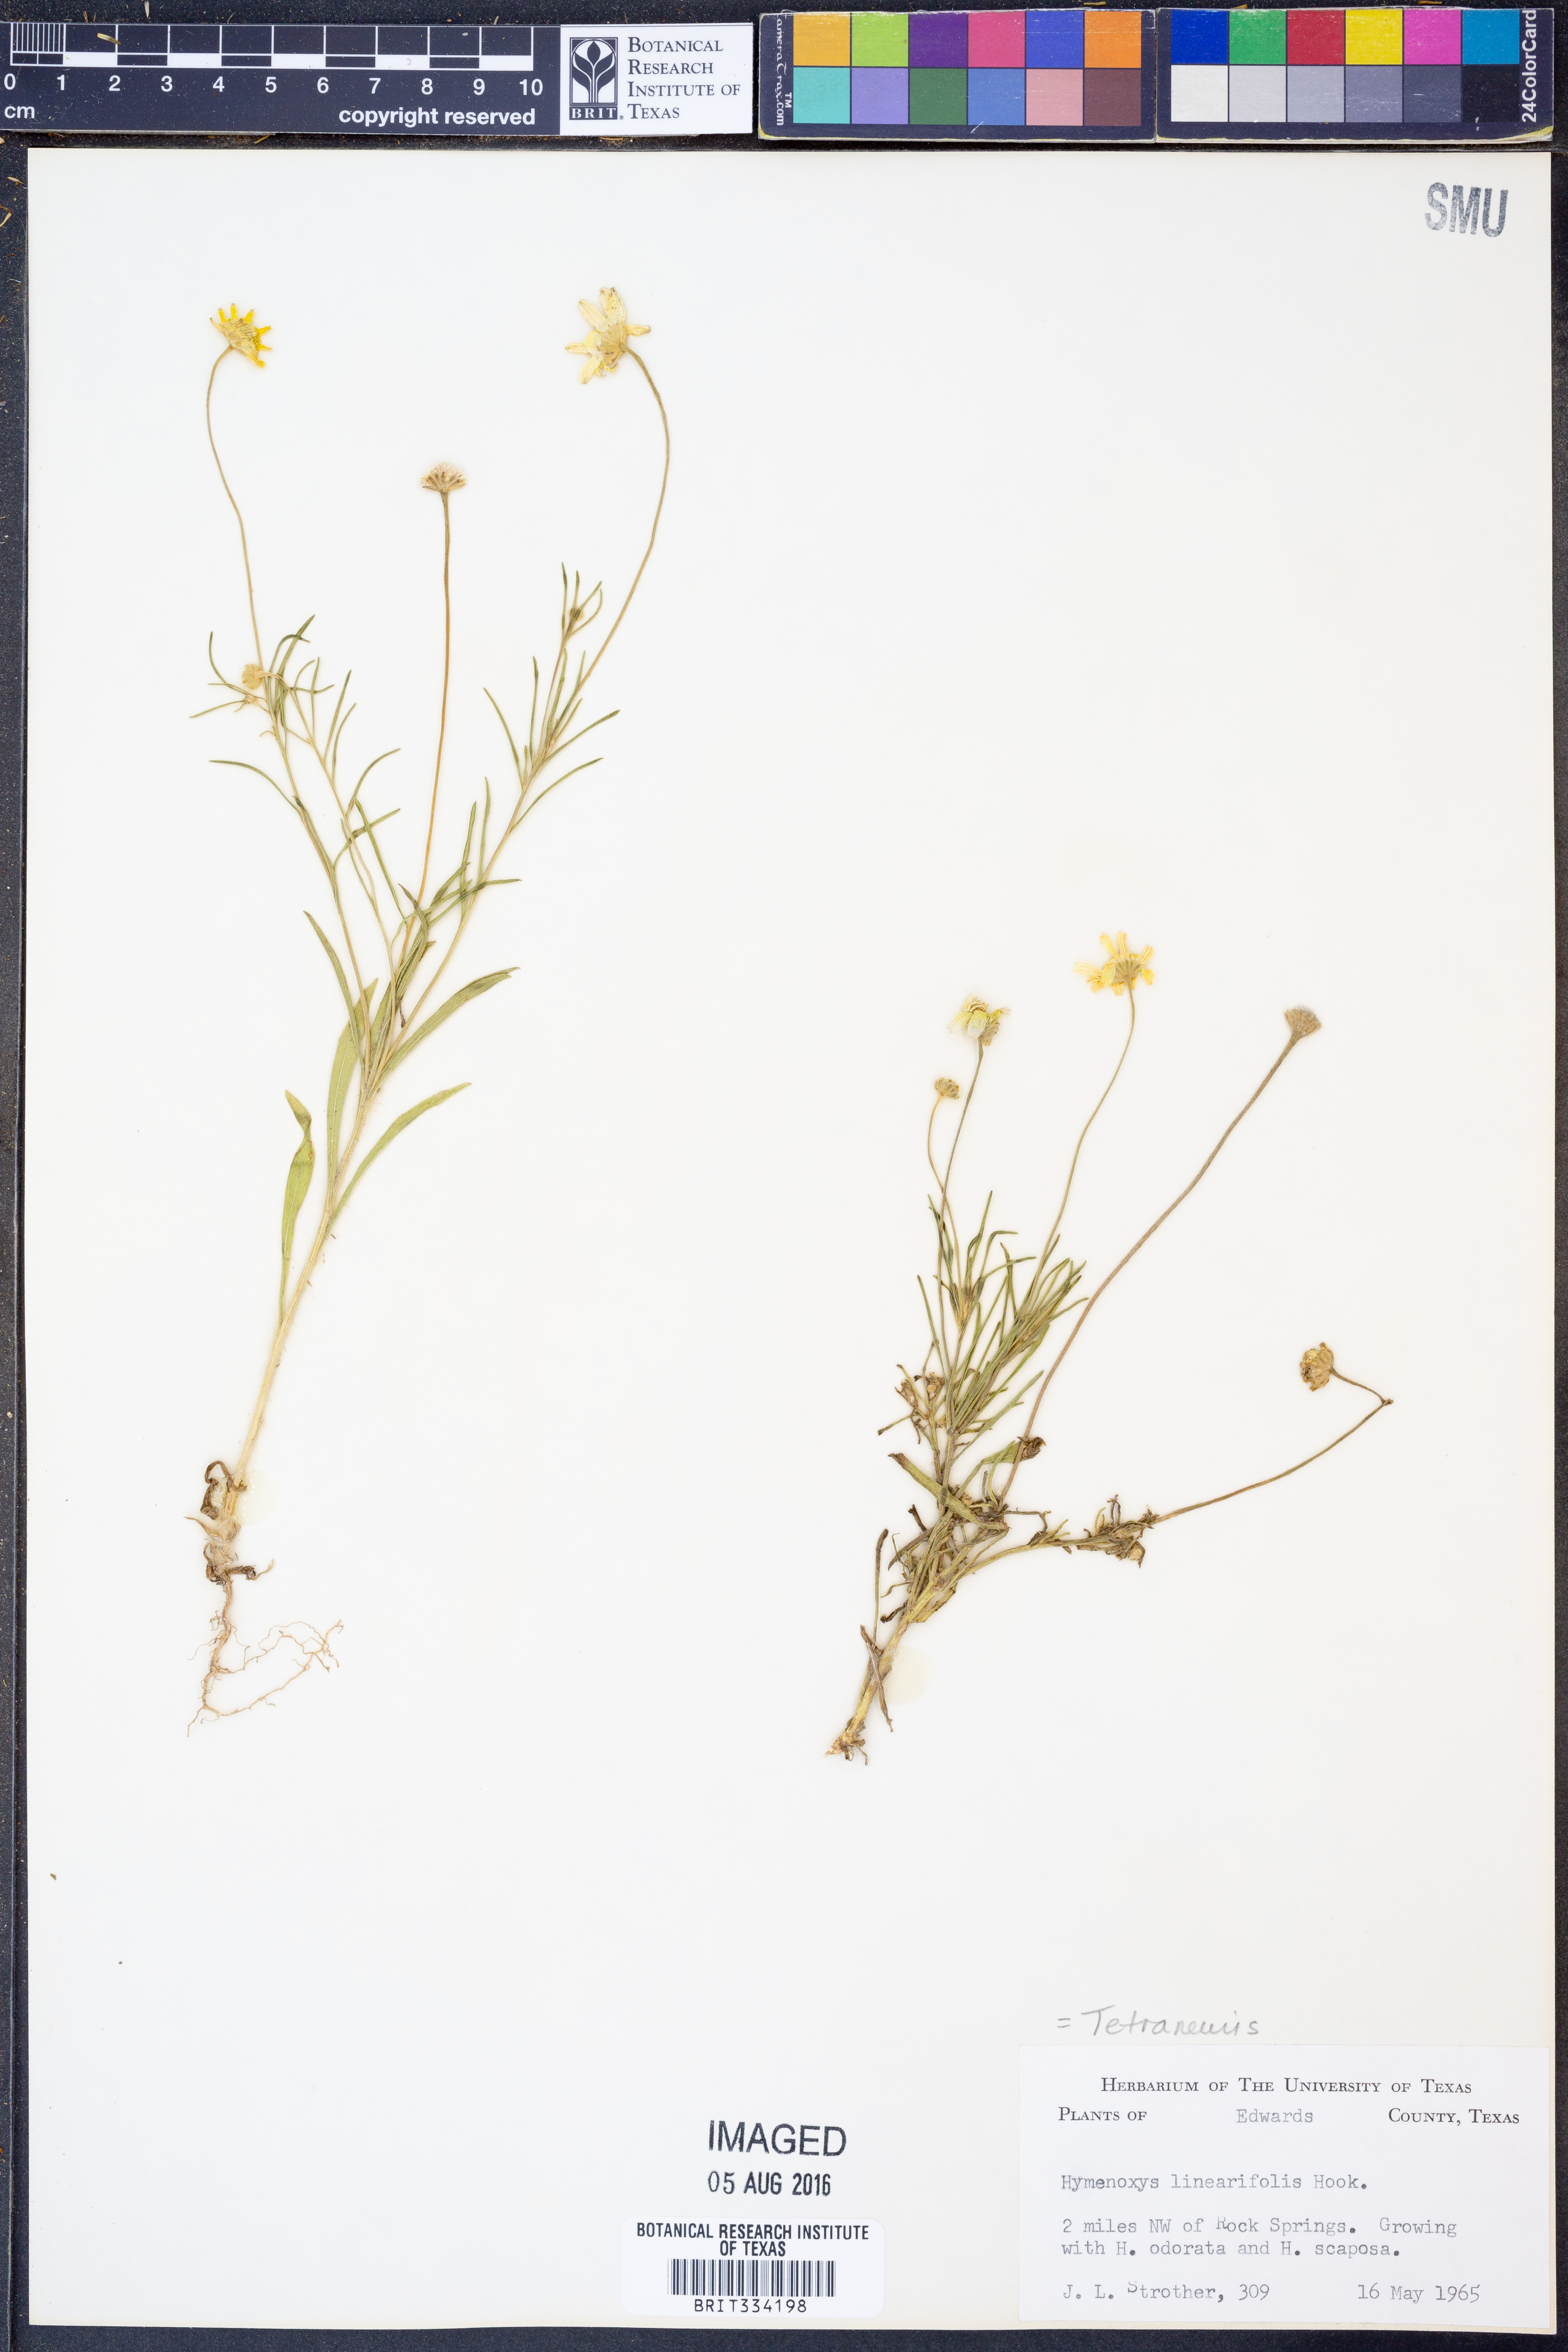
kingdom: Plantae
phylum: Tracheophyta
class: Magnoliopsida
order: Asterales
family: Asteraceae
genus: Tetraneuris
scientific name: Tetraneuris linearifolia
